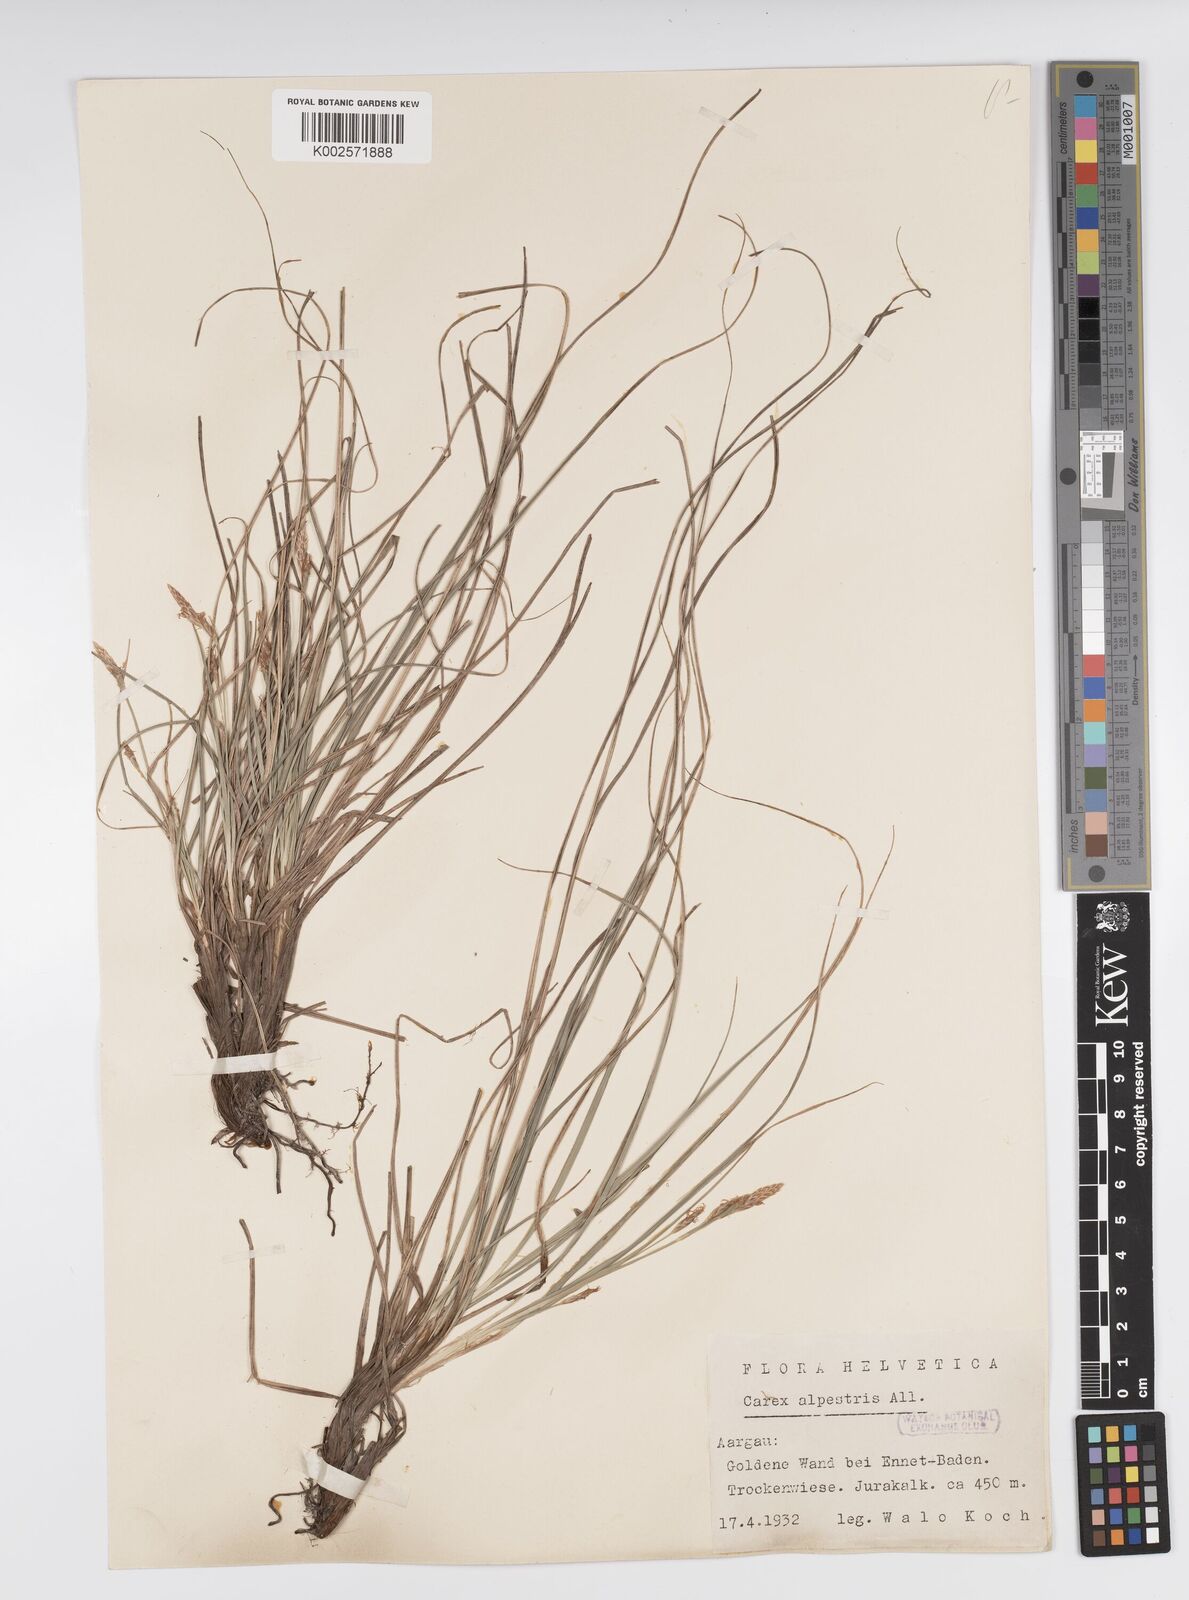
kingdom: Plantae
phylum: Tracheophyta
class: Liliopsida
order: Poales
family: Cyperaceae
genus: Carex
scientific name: Carex halleriana
